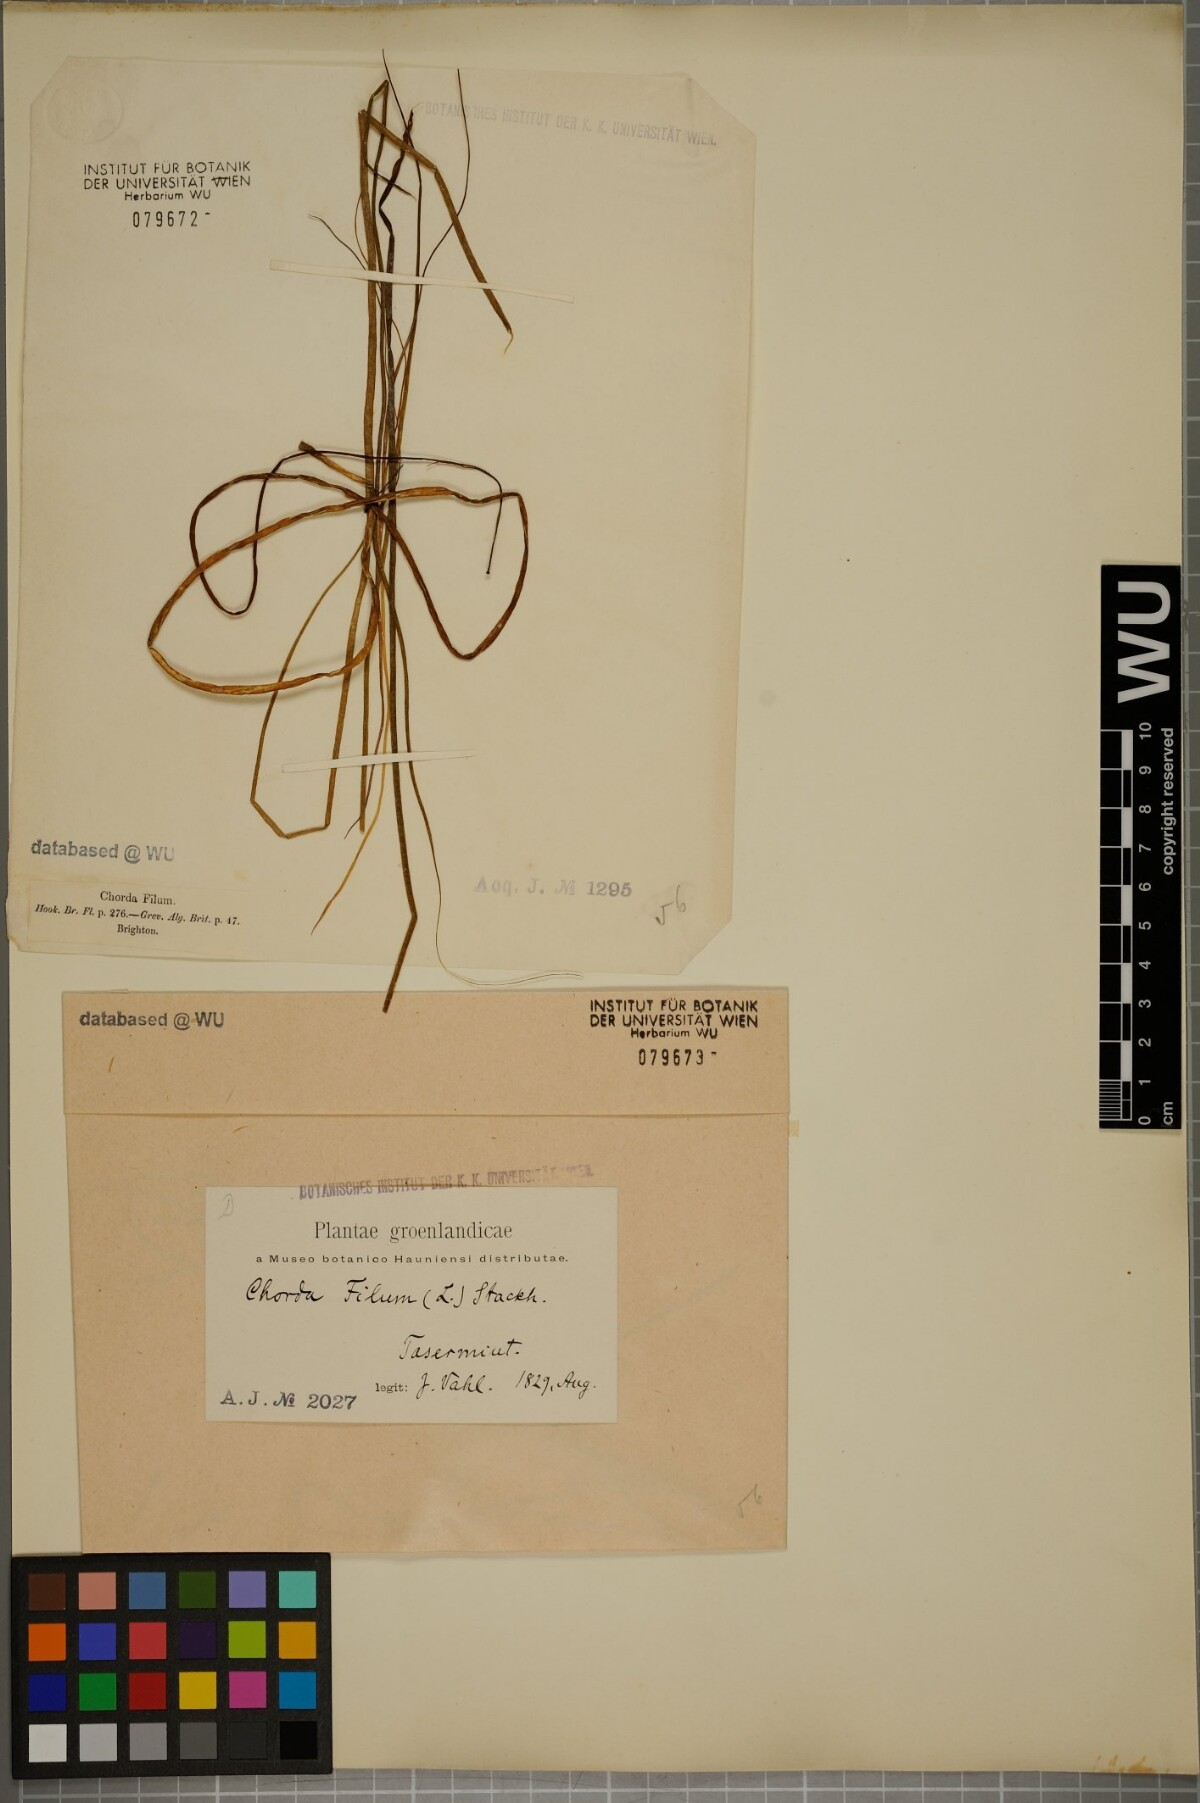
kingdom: Chromista
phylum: Ochrophyta
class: Phaeophyceae
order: Laminariales
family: Chordaceae
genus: Chorda
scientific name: Chorda filum
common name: Mermaid's tresses
